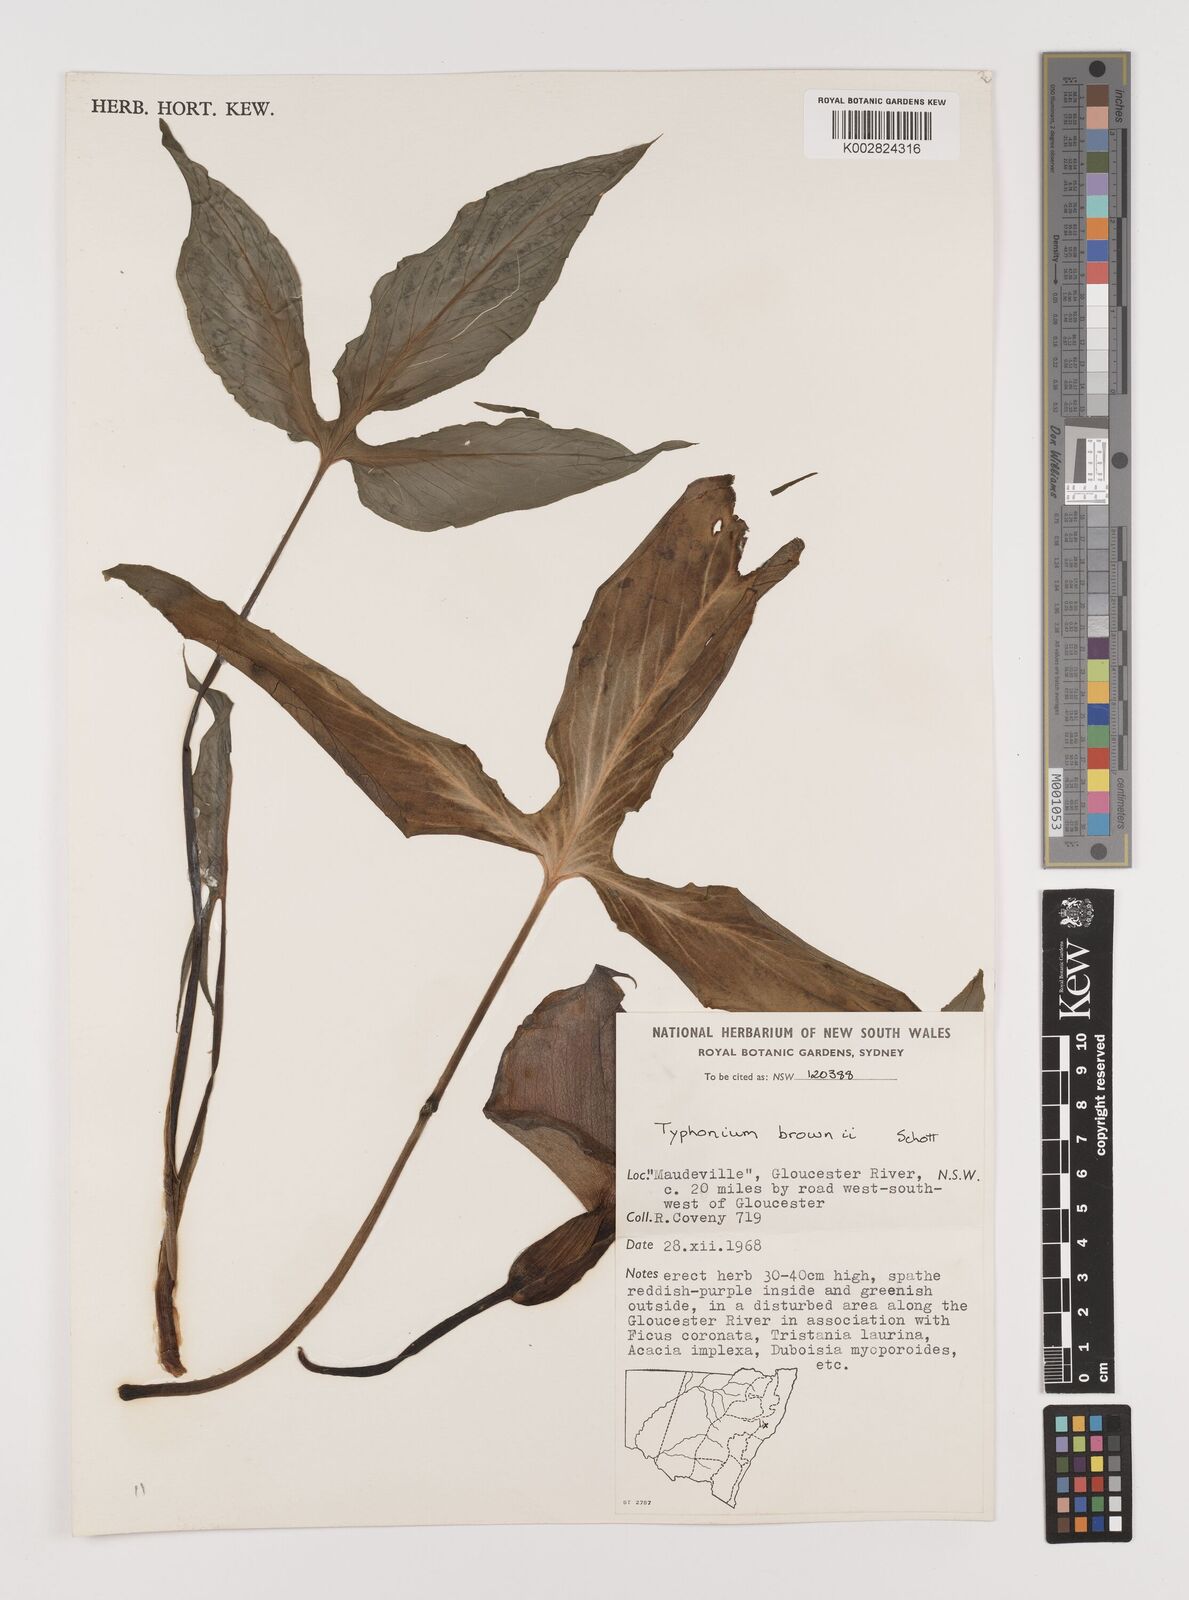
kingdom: Plantae
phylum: Tracheophyta
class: Liliopsida
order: Alismatales
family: Araceae
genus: Typhonium
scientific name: Typhonium brownii
